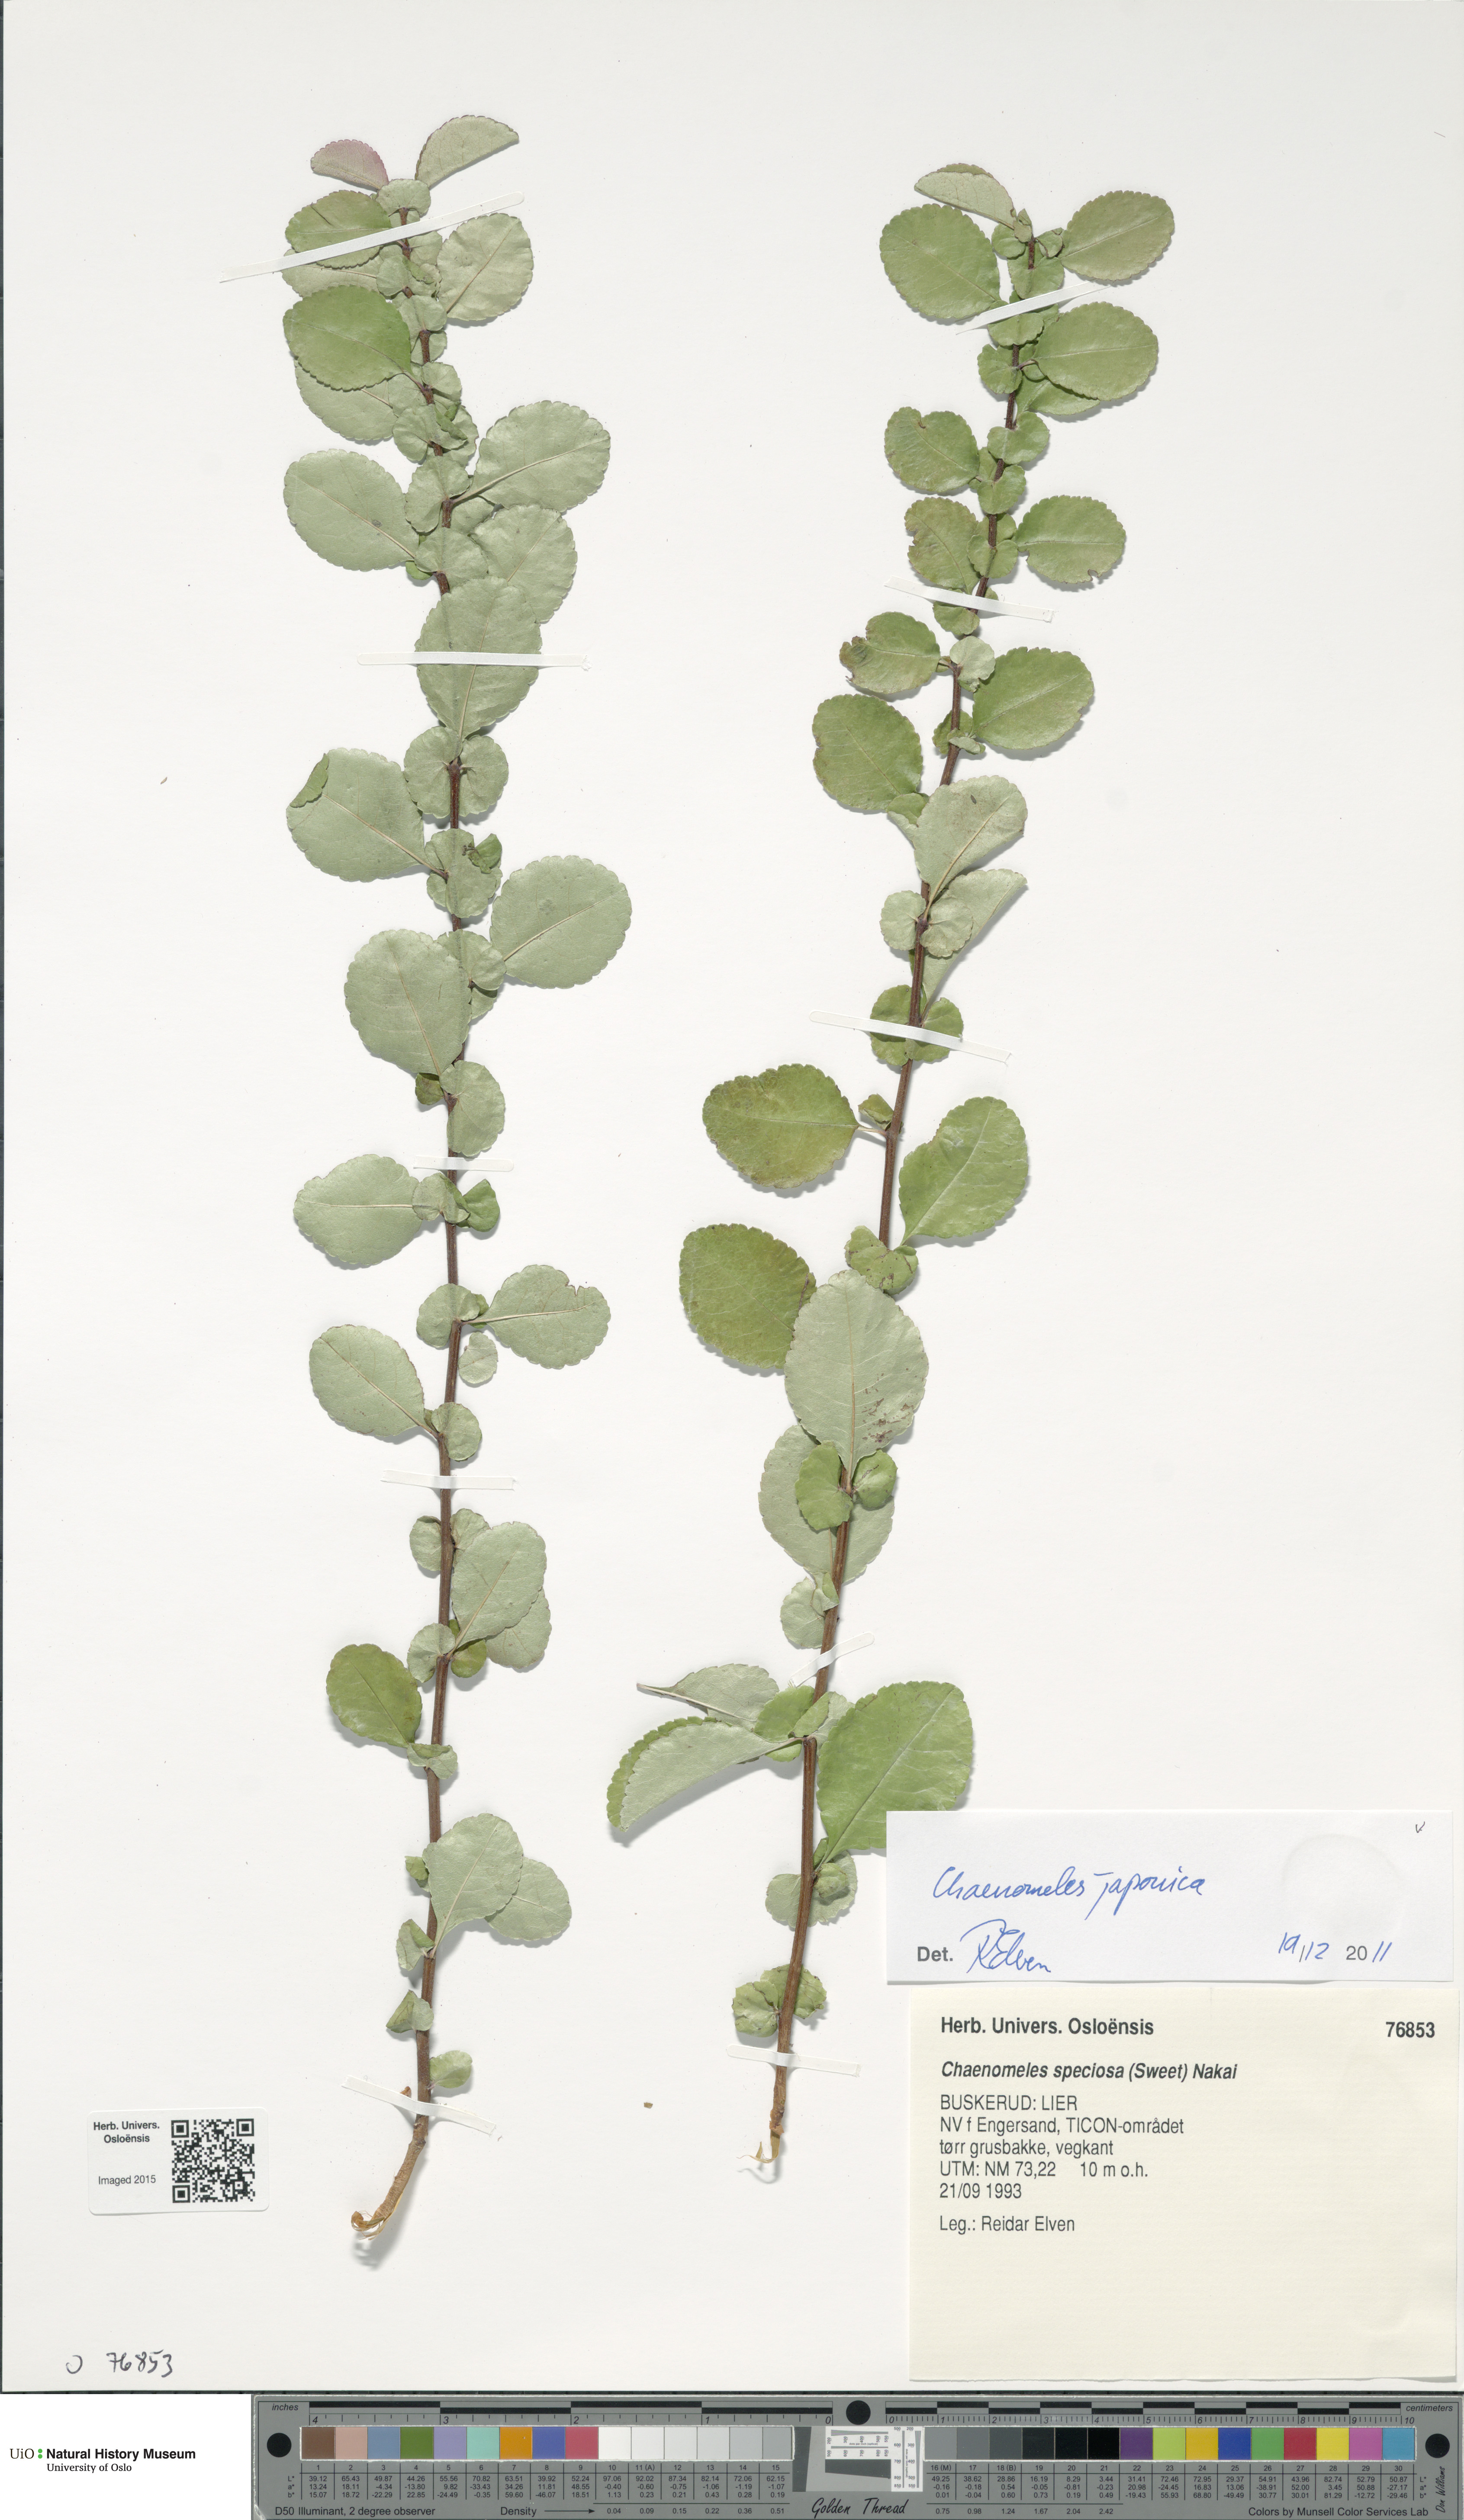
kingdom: Plantae
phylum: Tracheophyta
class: Magnoliopsida
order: Rosales
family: Rosaceae
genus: Chaenomeles
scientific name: Chaenomeles japonica
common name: Japanese quince
